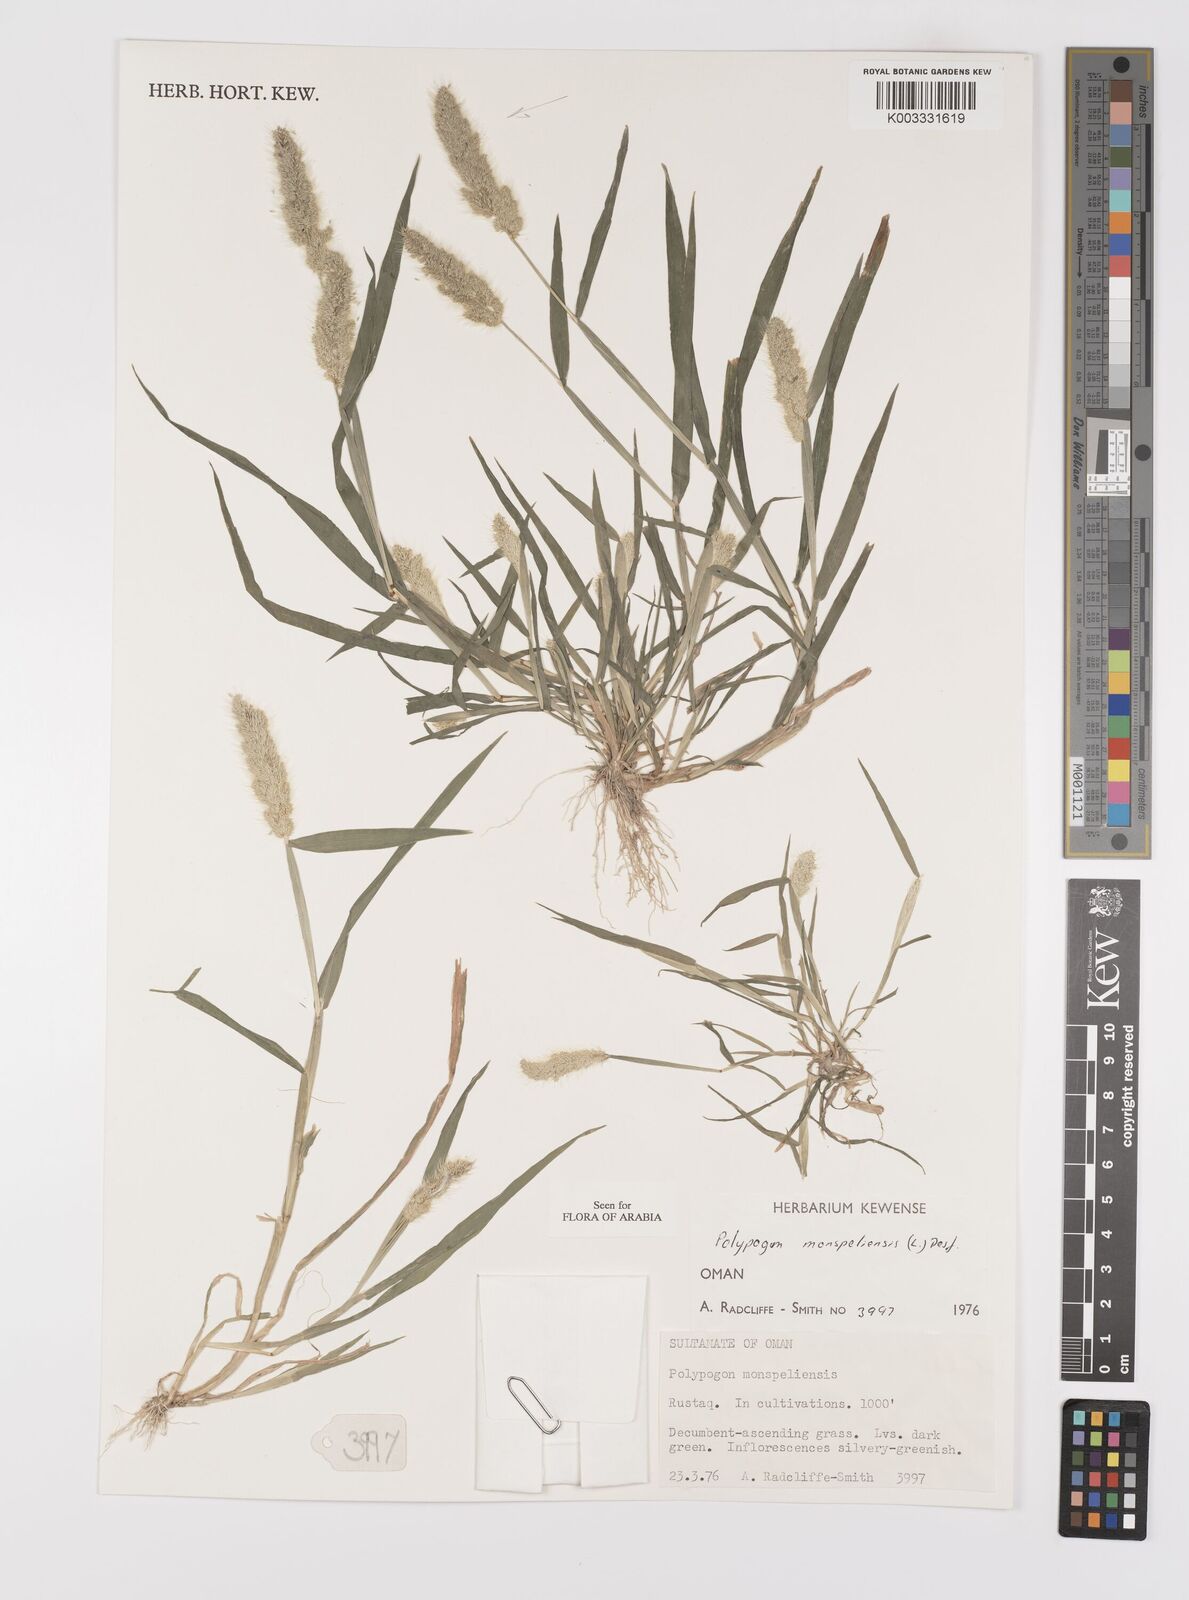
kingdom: Plantae
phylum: Tracheophyta
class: Liliopsida
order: Poales
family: Poaceae
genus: Polypogon
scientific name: Polypogon monspeliensis
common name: Annual rabbitsfoot grass
